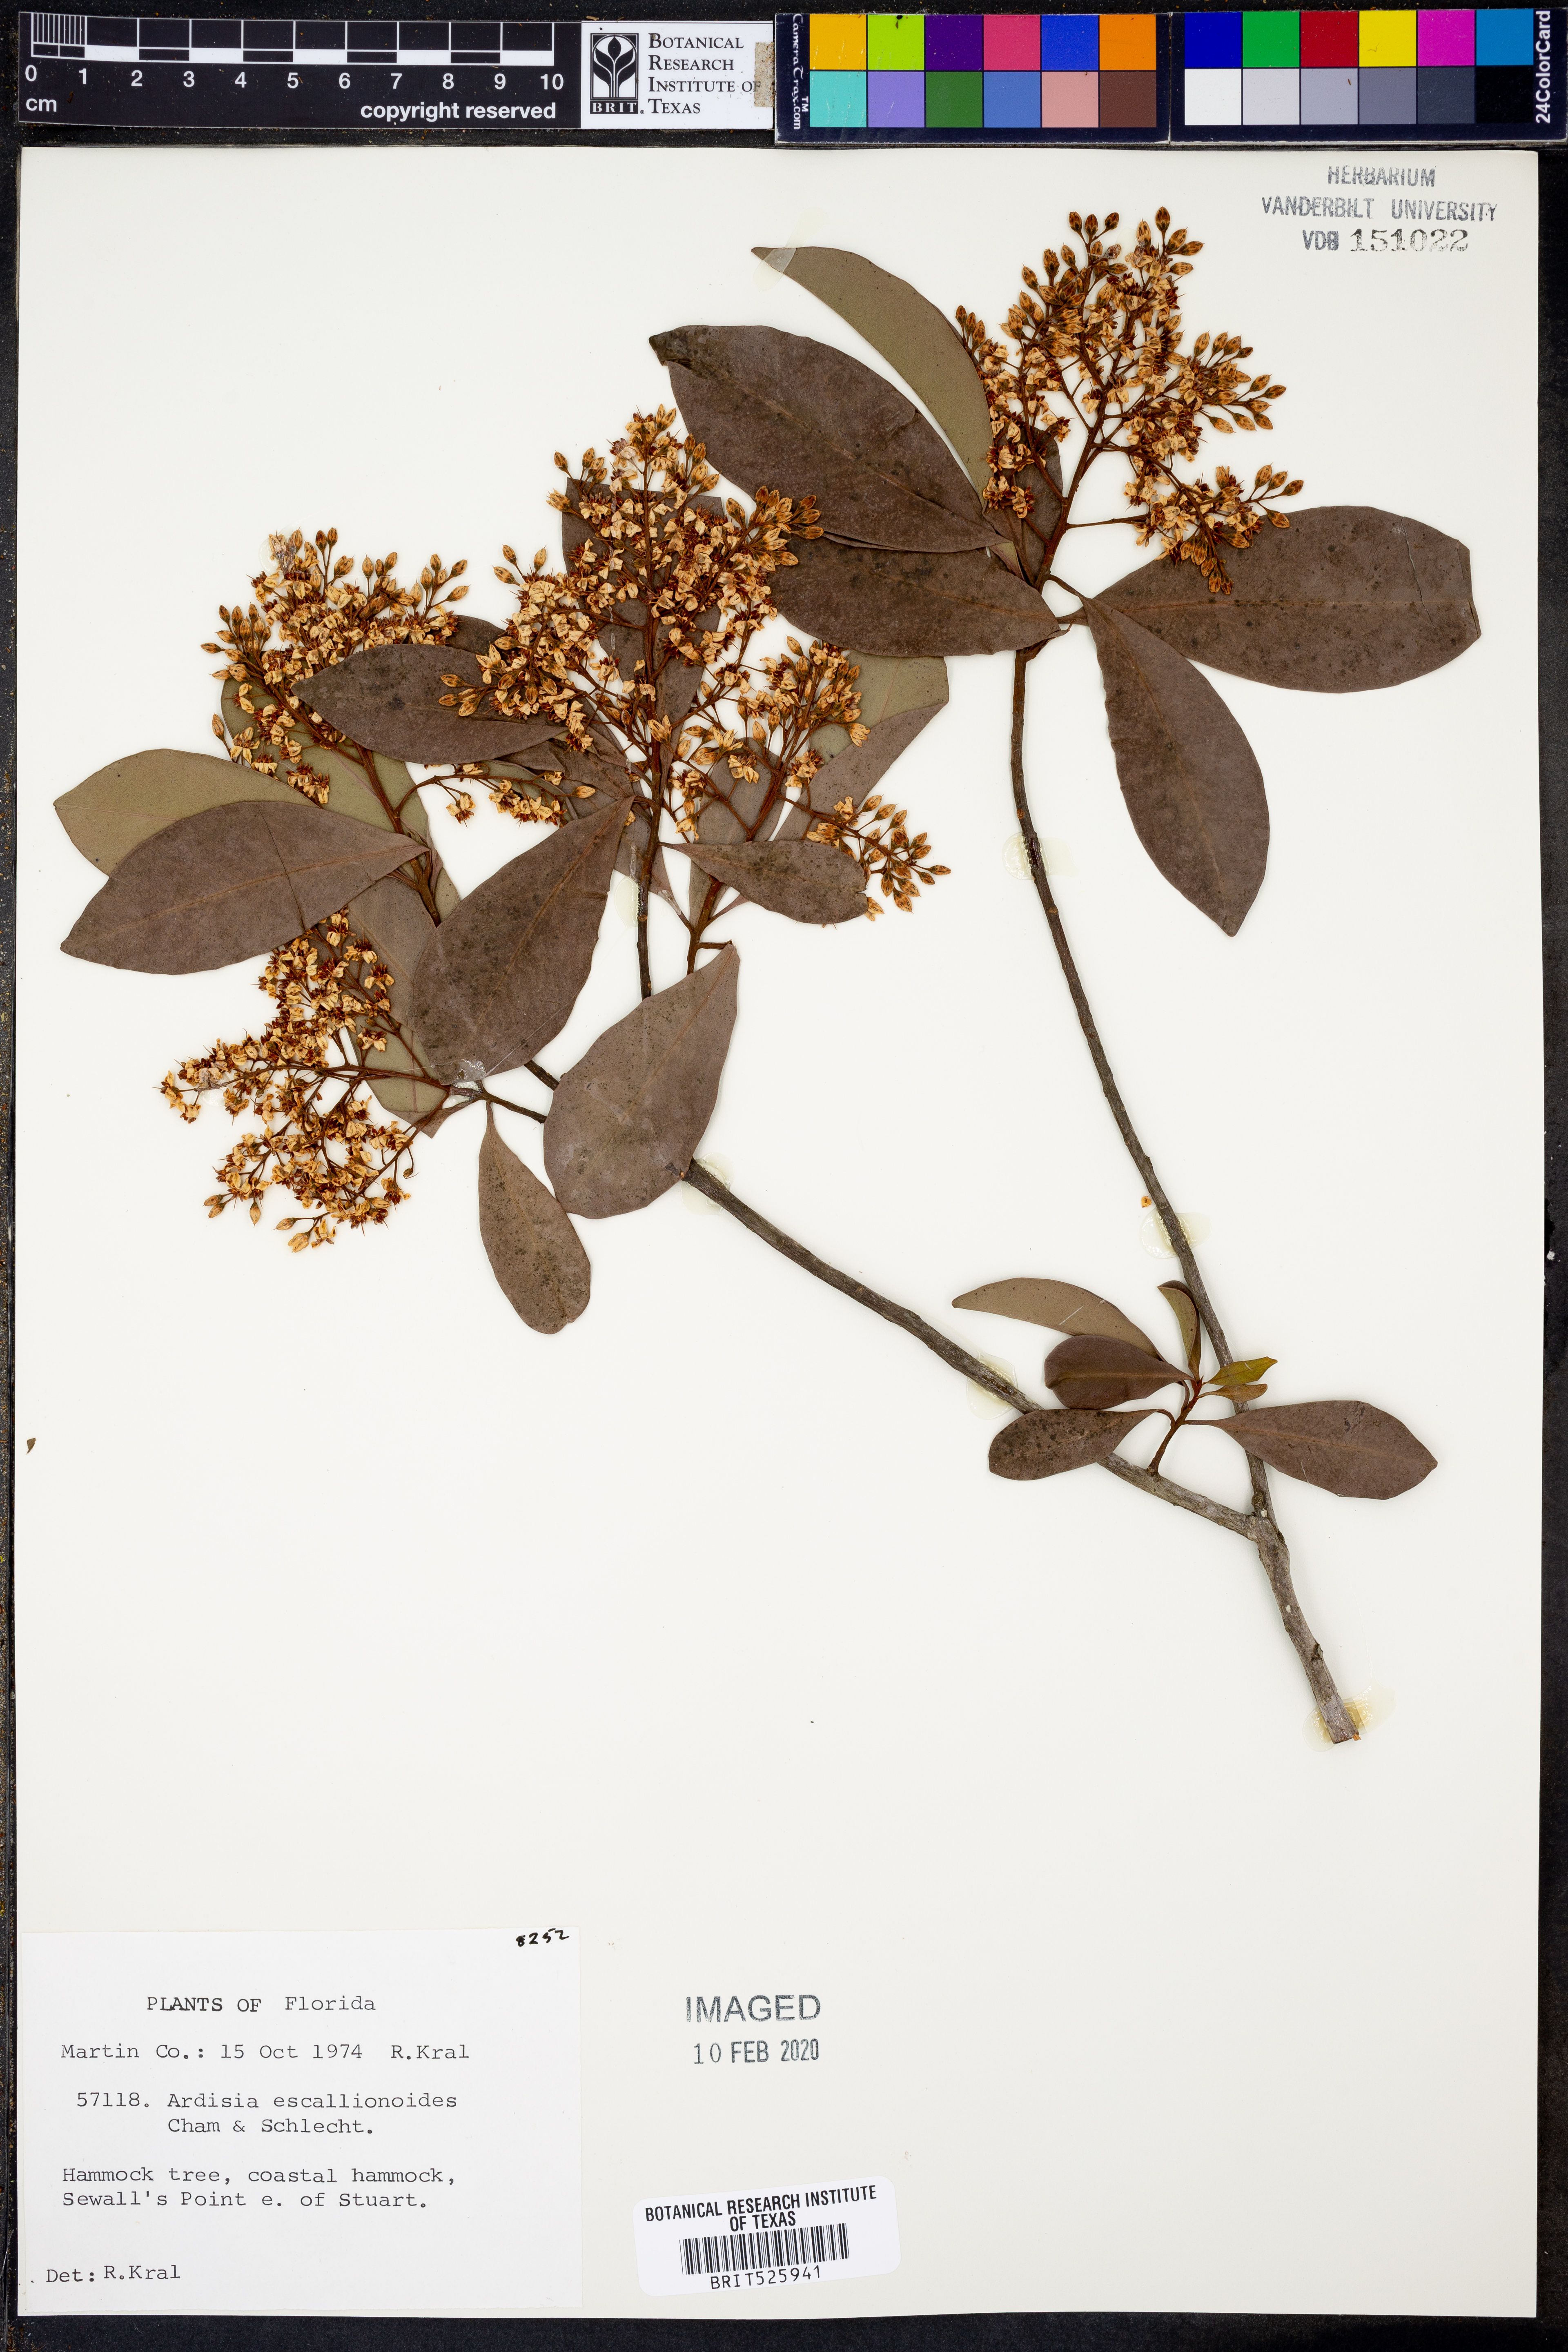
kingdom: Plantae
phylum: Tracheophyta
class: Magnoliopsida
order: Ericales
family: Primulaceae
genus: Ardisia
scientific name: Ardisia escallonioides
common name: Island marlberry
